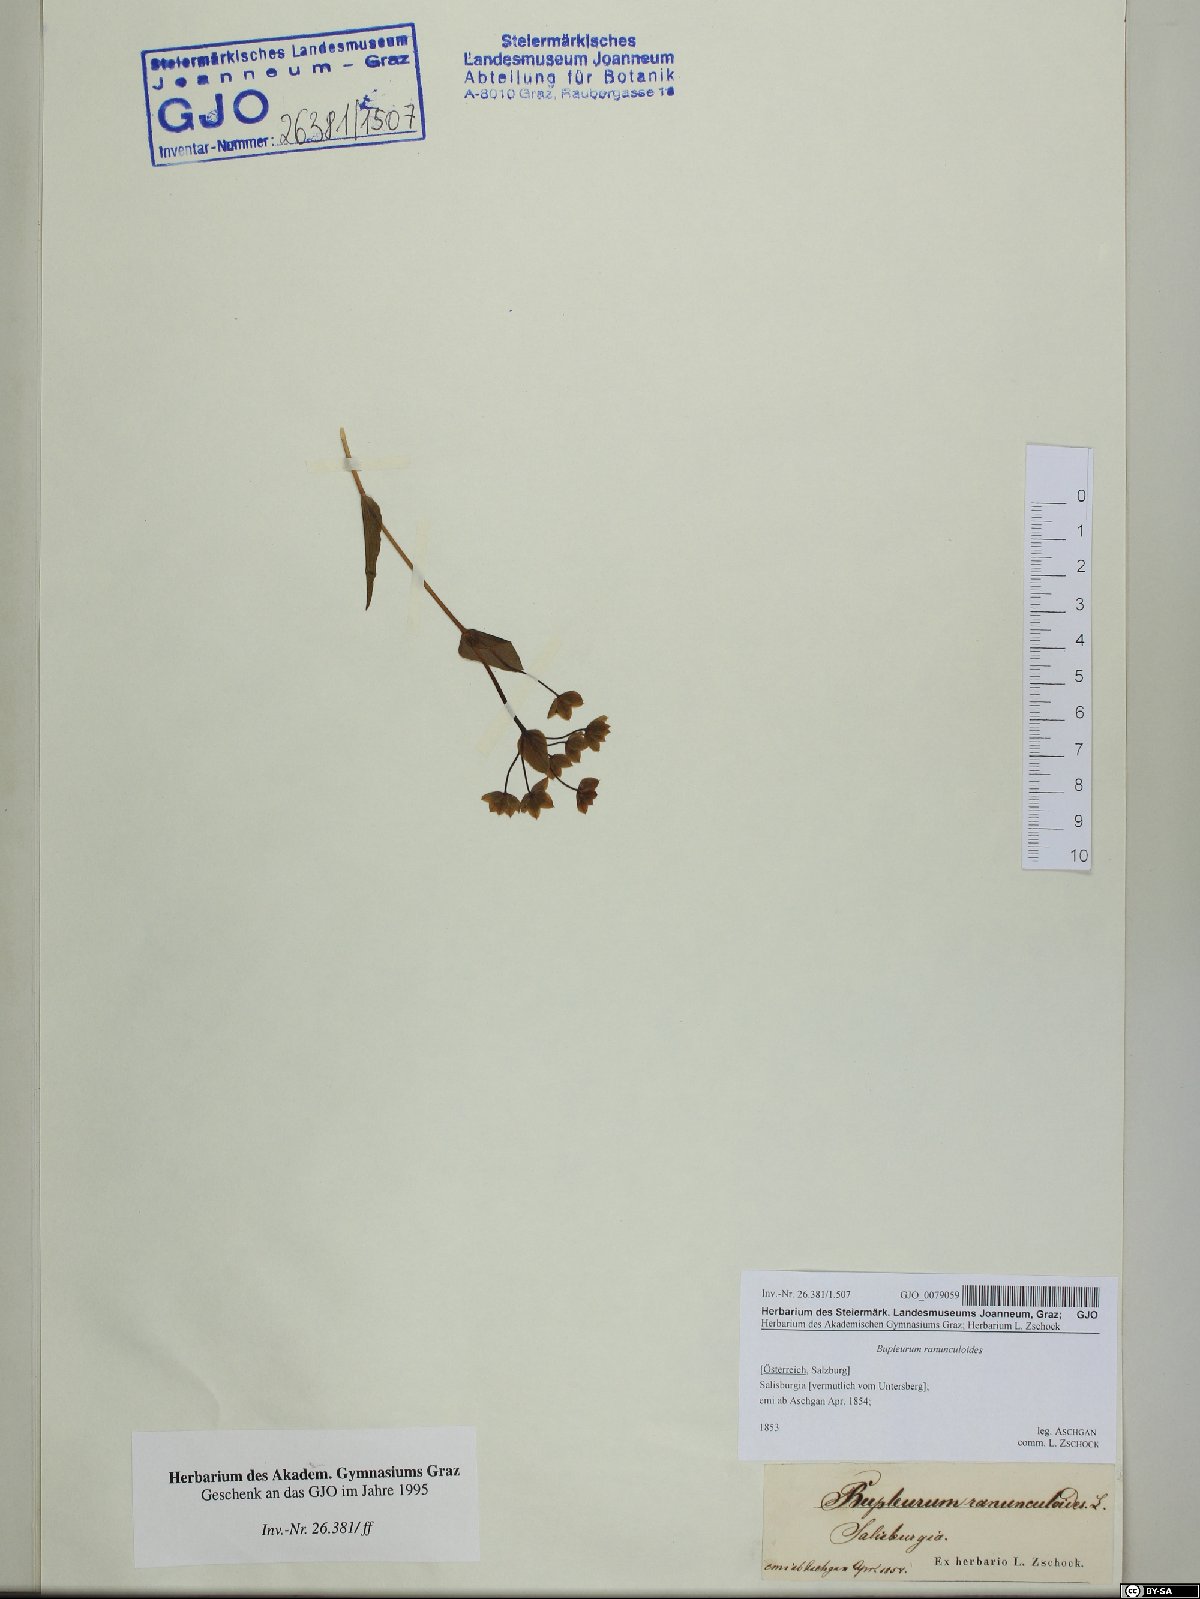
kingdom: Plantae
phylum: Tracheophyta
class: Magnoliopsida
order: Apiales
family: Apiaceae
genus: Bupleurum
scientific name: Bupleurum ranunculoides
